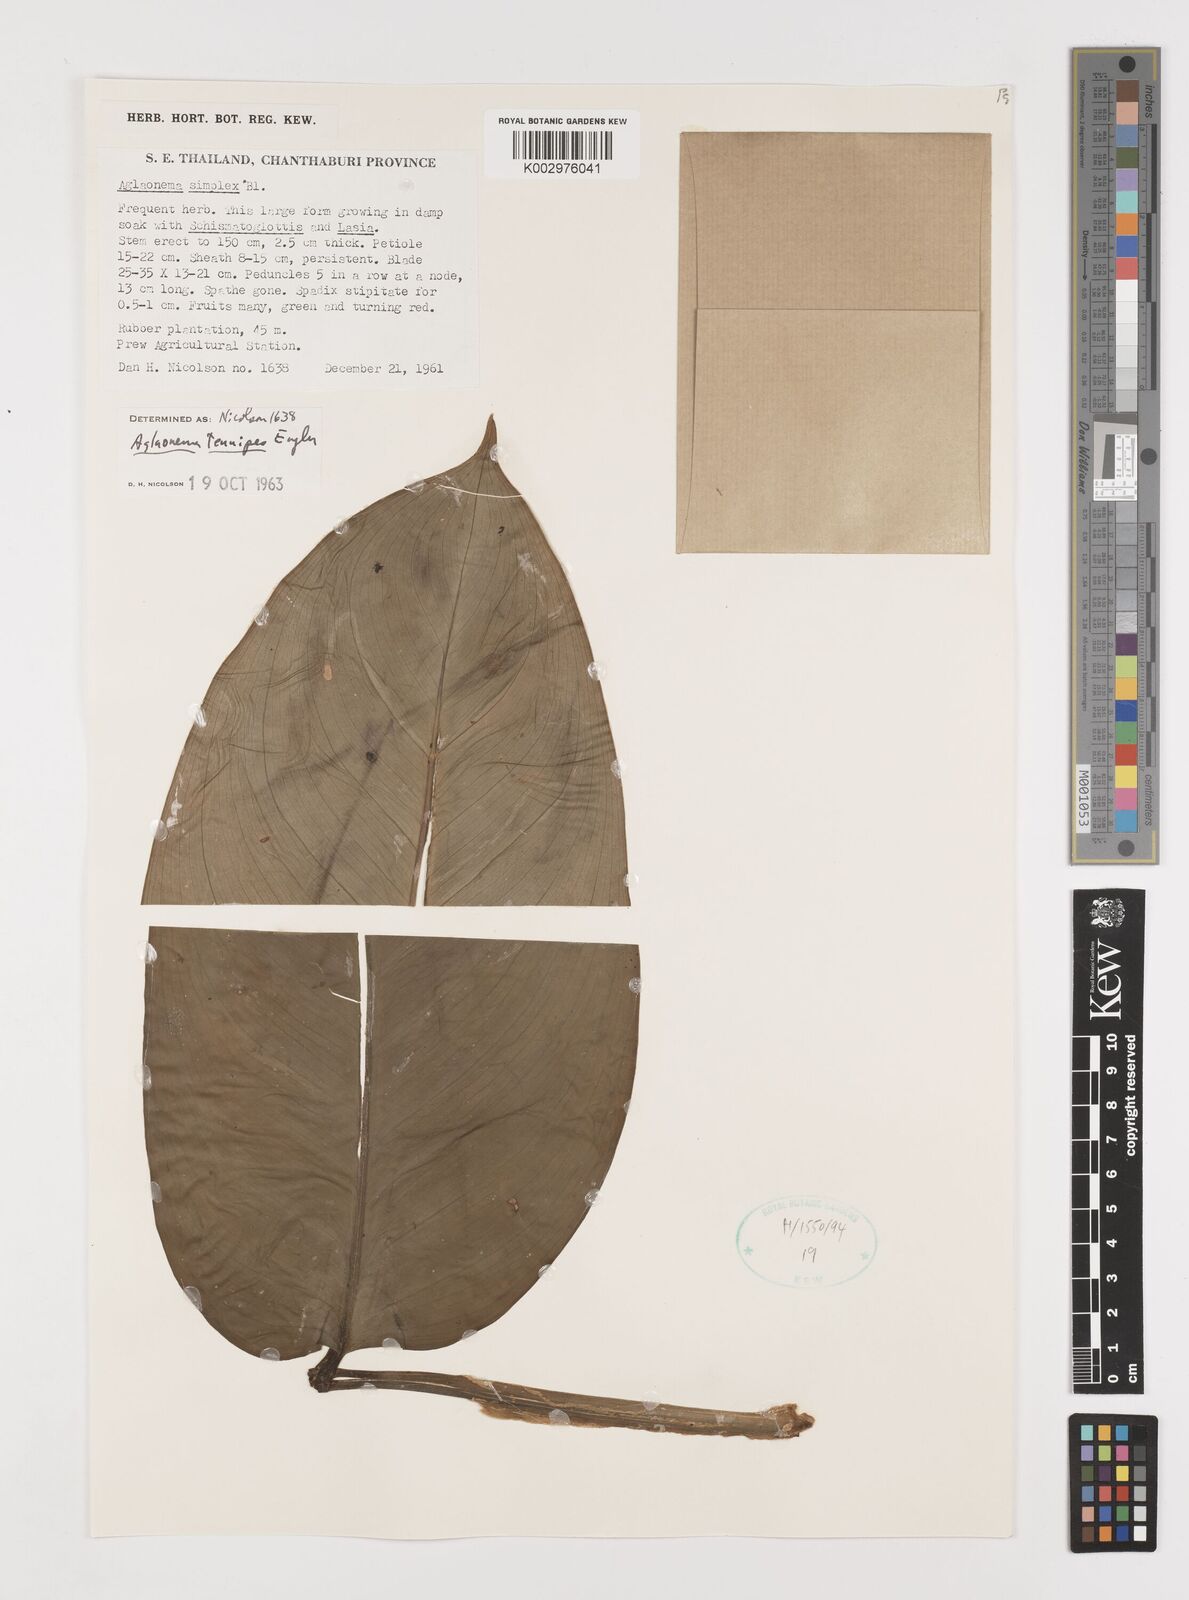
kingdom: Plantae
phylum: Tracheophyta
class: Liliopsida
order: Alismatales
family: Araceae
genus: Aglaonema
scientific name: Aglaonema simplex
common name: Malayan-sword
